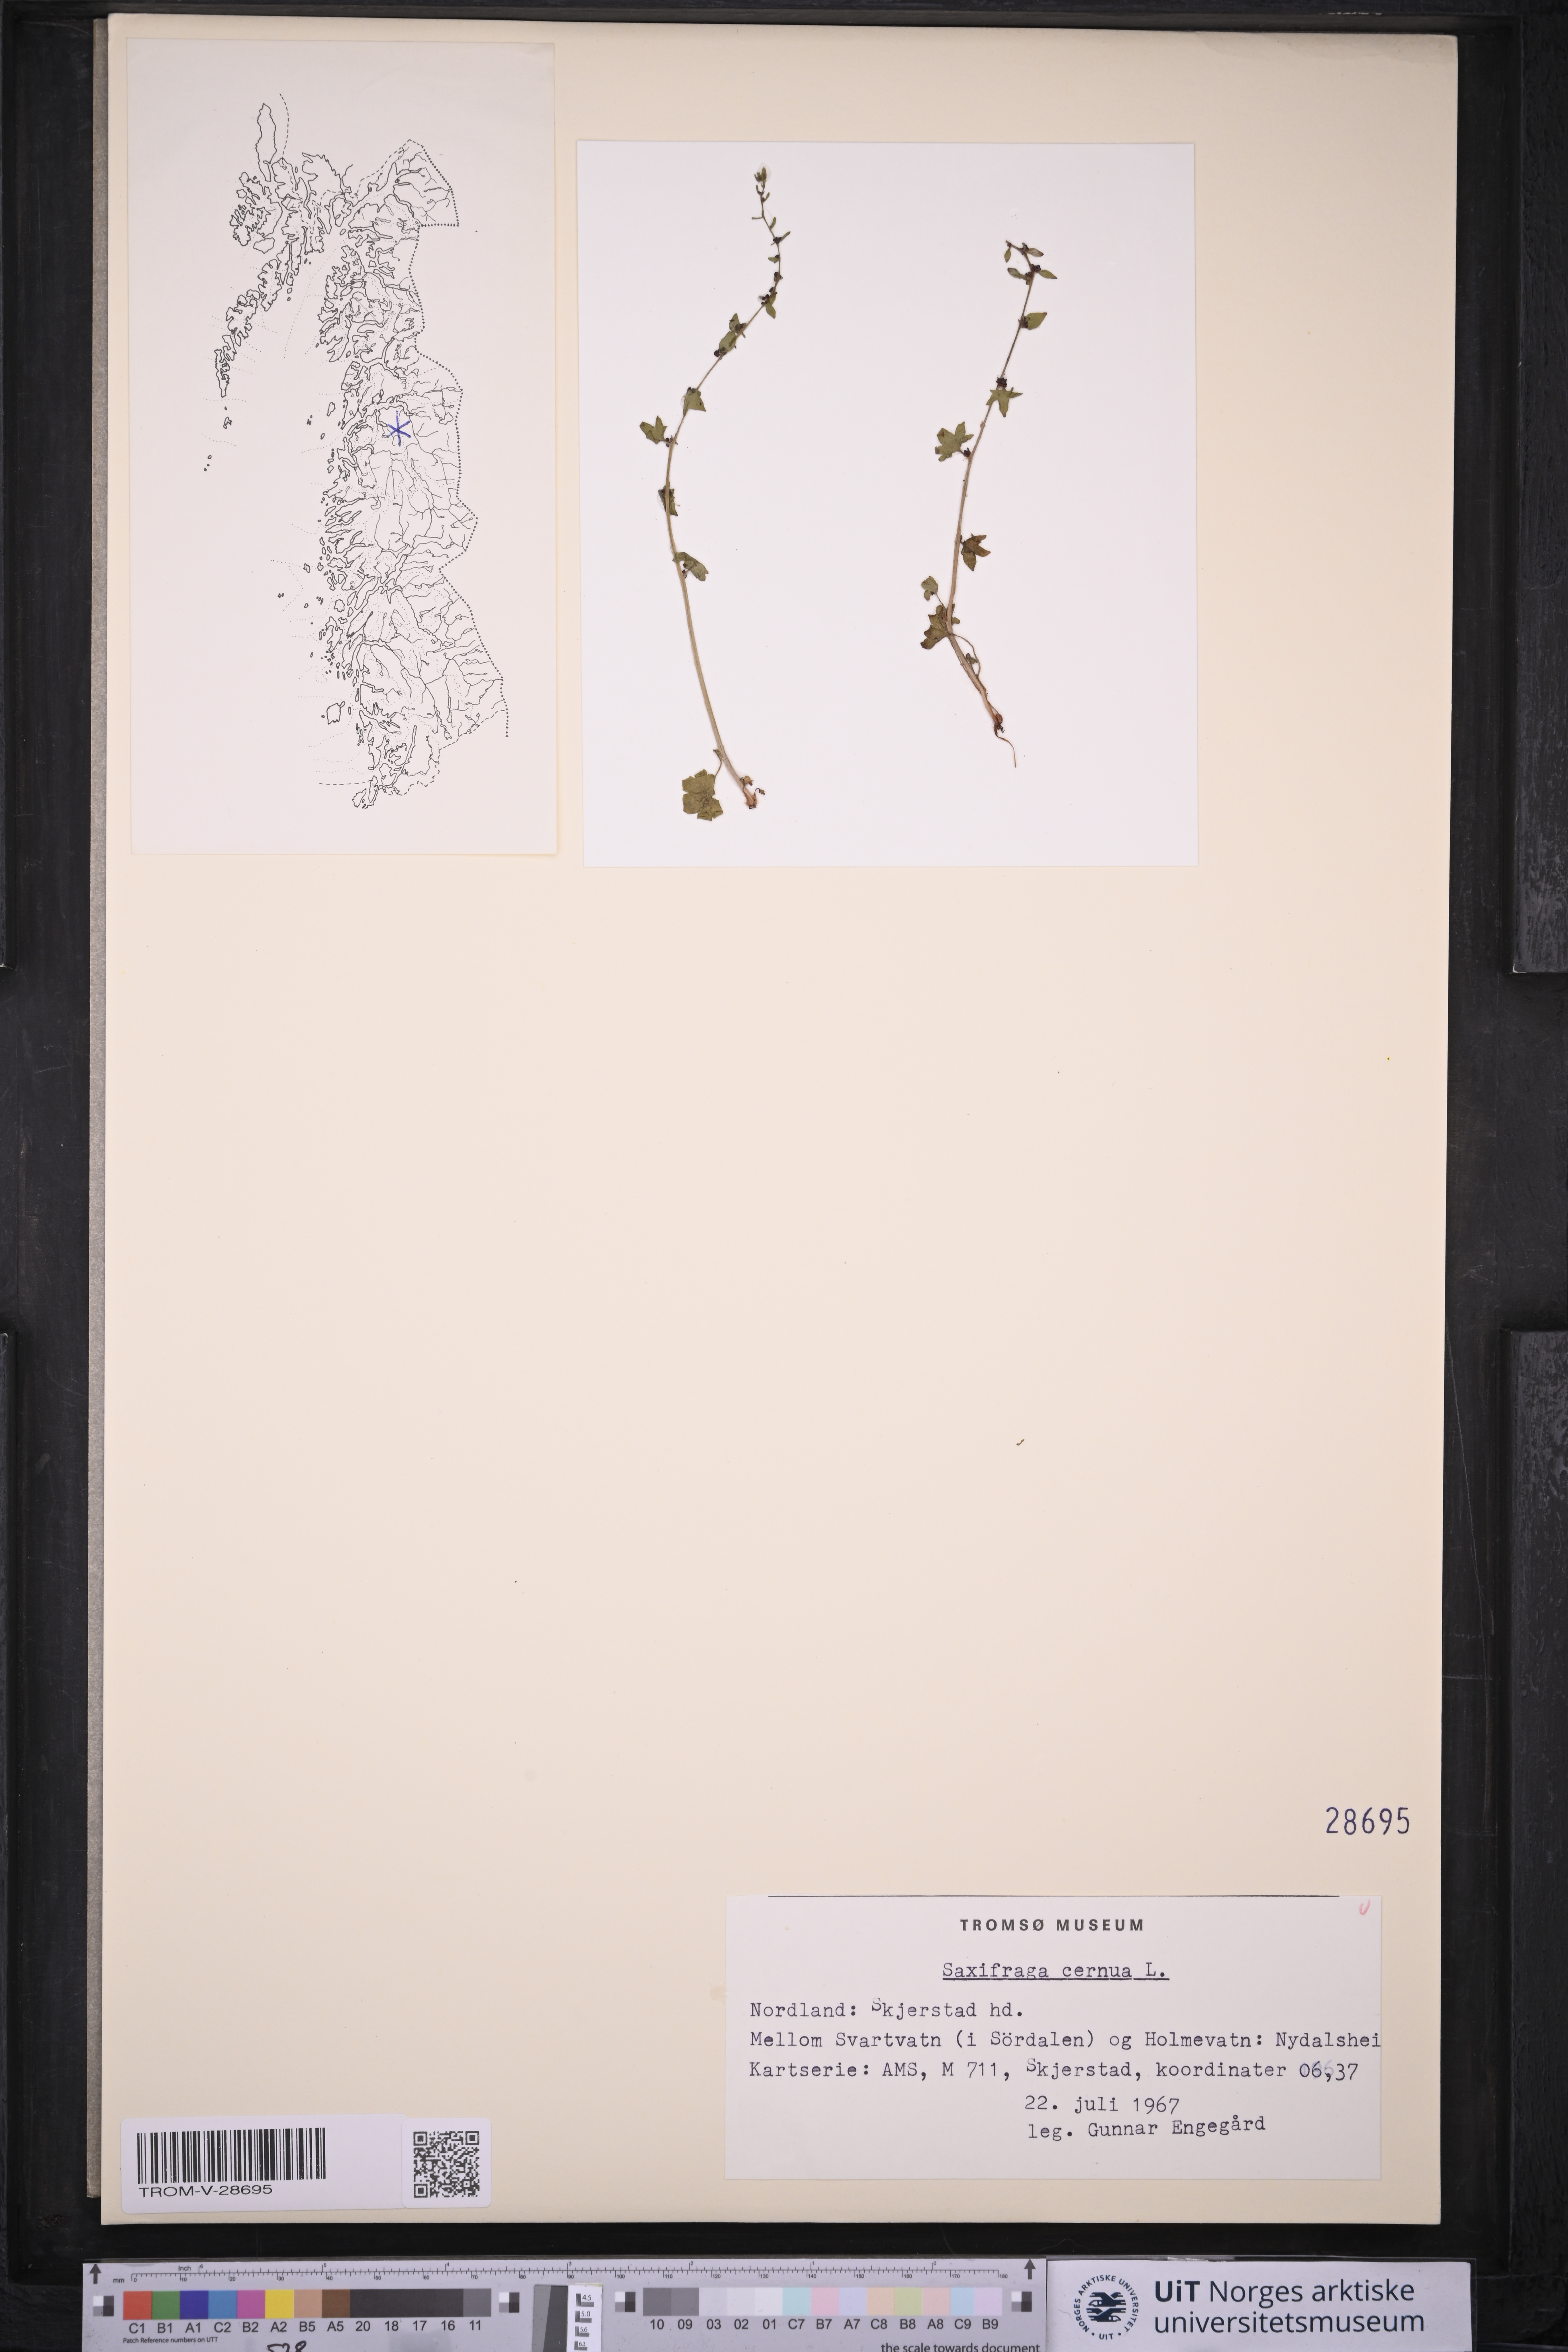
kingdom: Plantae
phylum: Tracheophyta
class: Magnoliopsida
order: Saxifragales
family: Saxifragaceae
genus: Saxifraga
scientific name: Saxifraga cernua
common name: Drooping saxifrage
